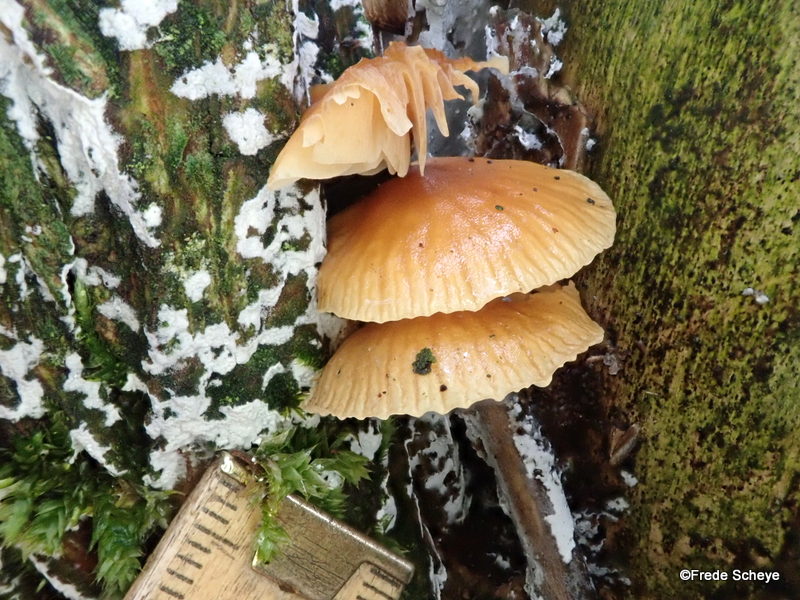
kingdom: Fungi
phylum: Basidiomycota
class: Agaricomycetes
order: Agaricales
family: Physalacriaceae
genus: Flammulina
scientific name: Flammulina velutipes
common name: gul fløjlsfod
